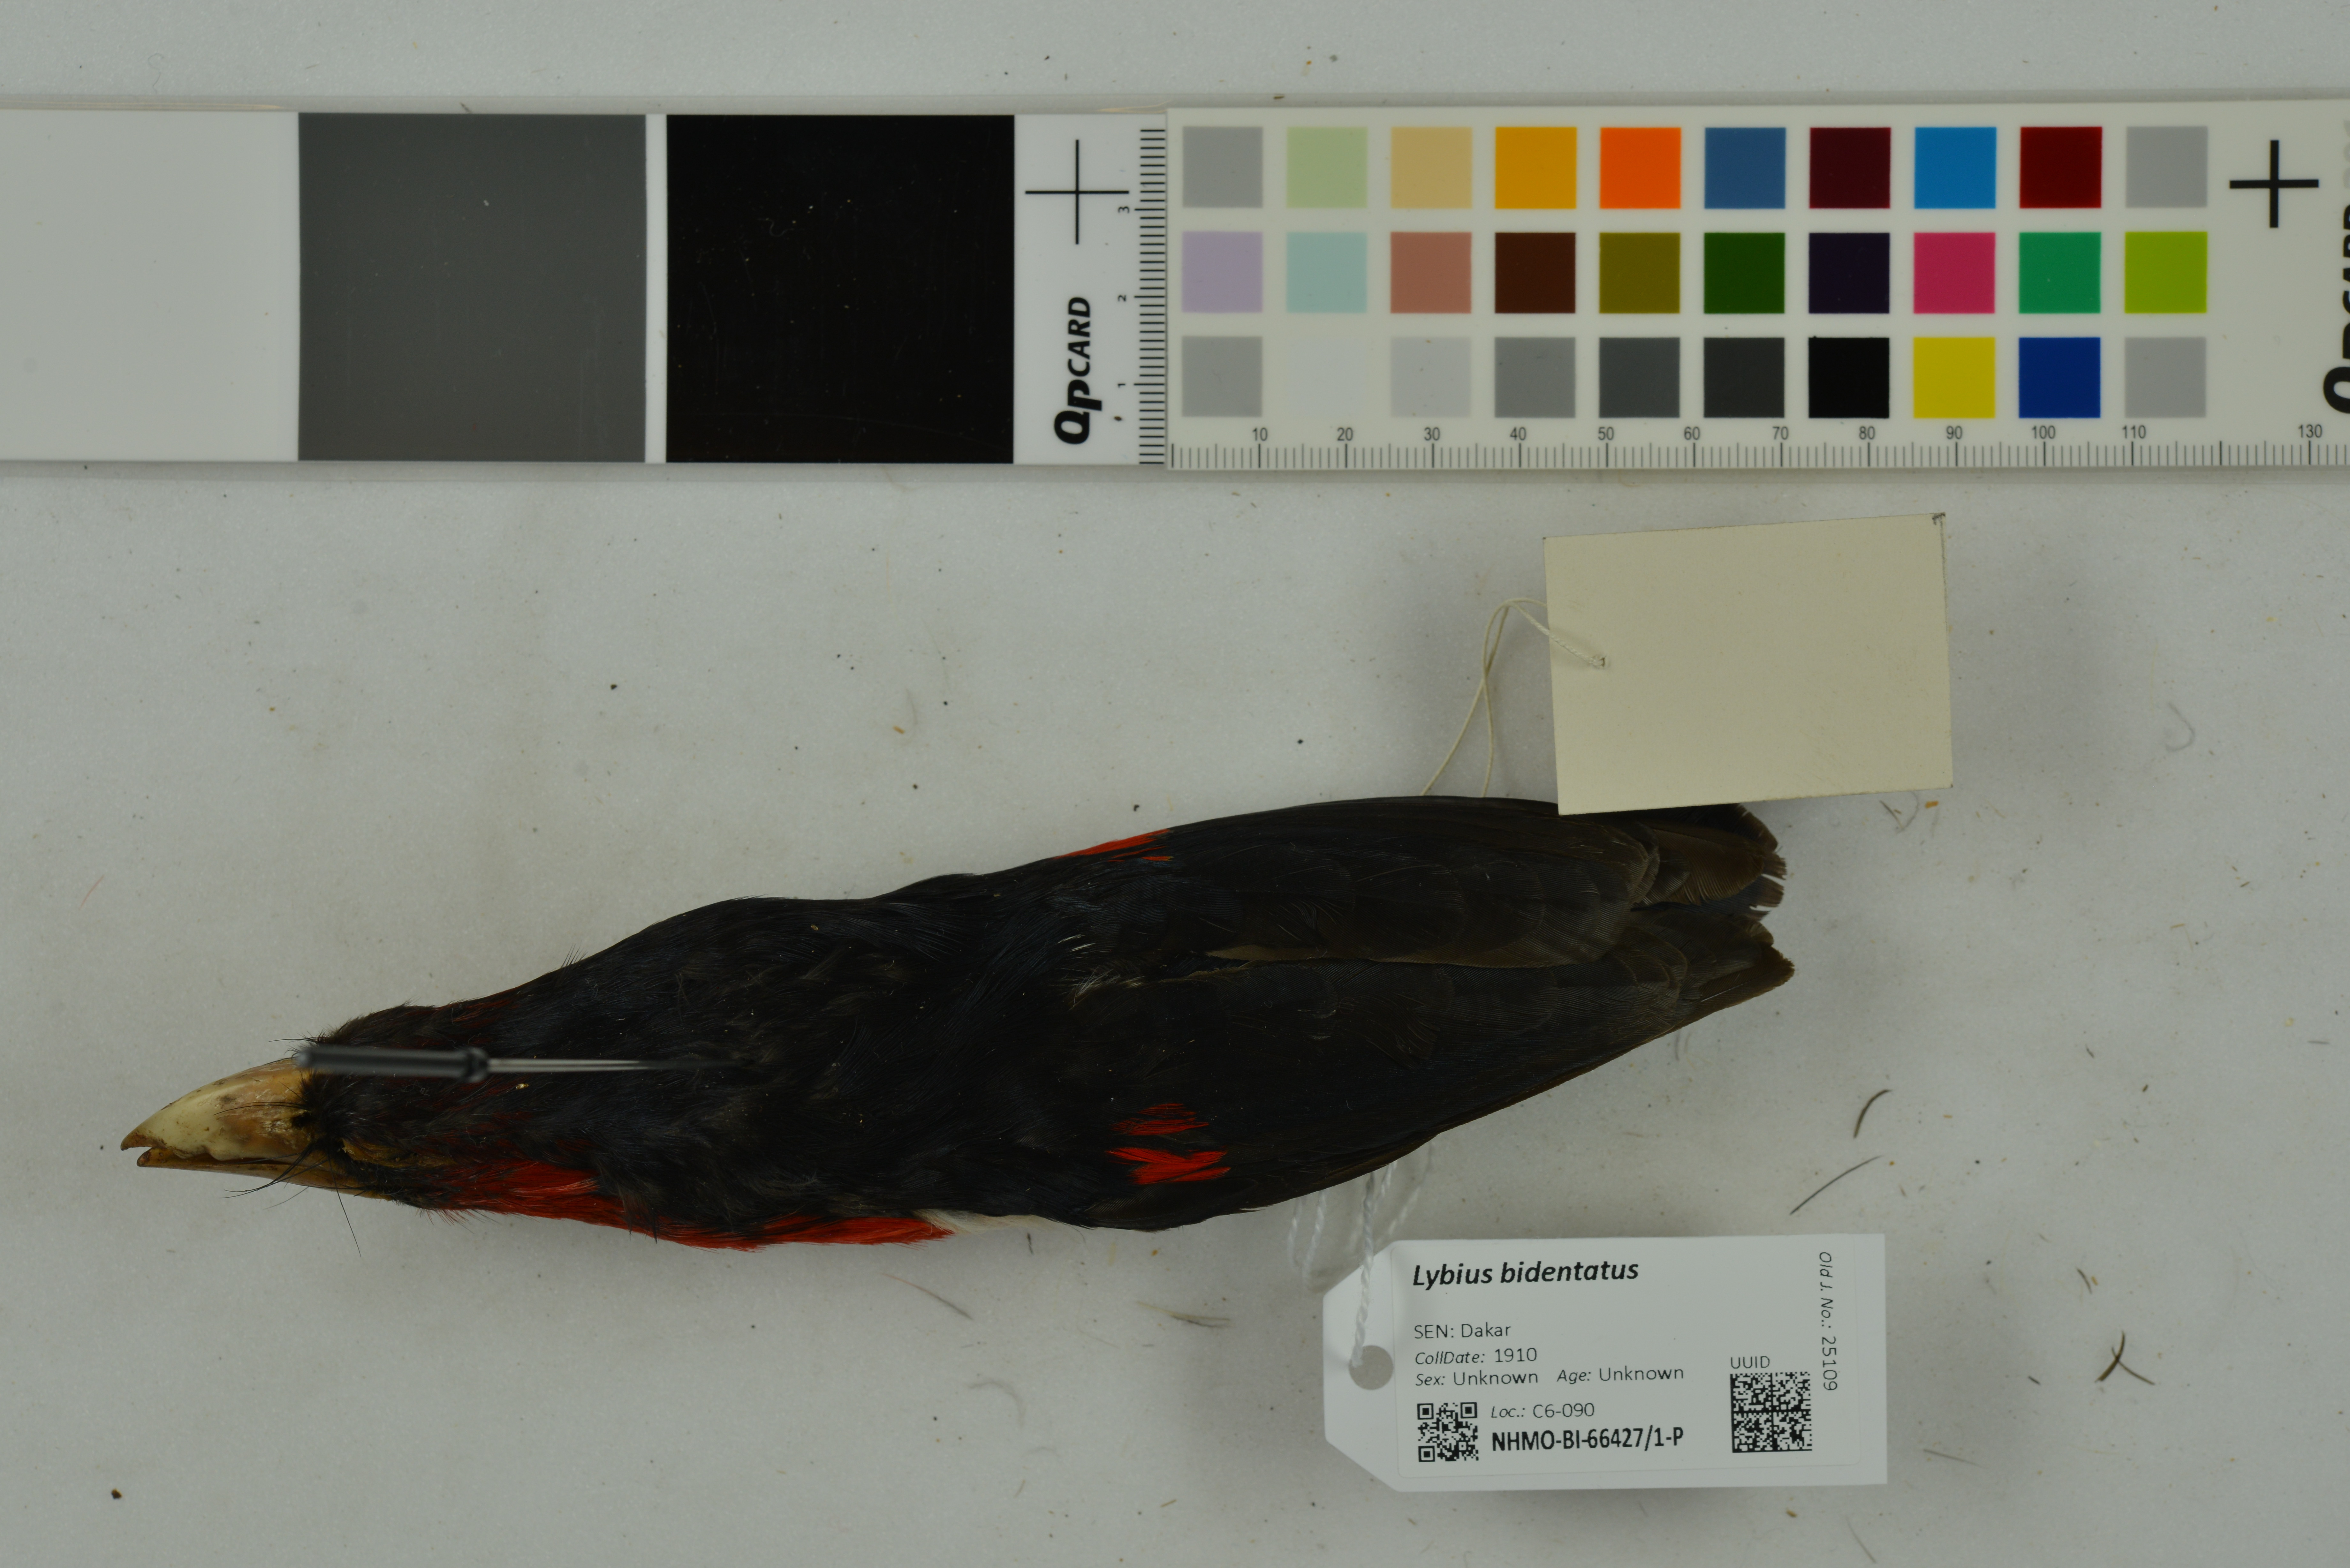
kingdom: Animalia
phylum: Chordata
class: Aves
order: Piciformes
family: Lybiidae
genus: Lybius
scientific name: Lybius bidentatus
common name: Double-toothed barbet
